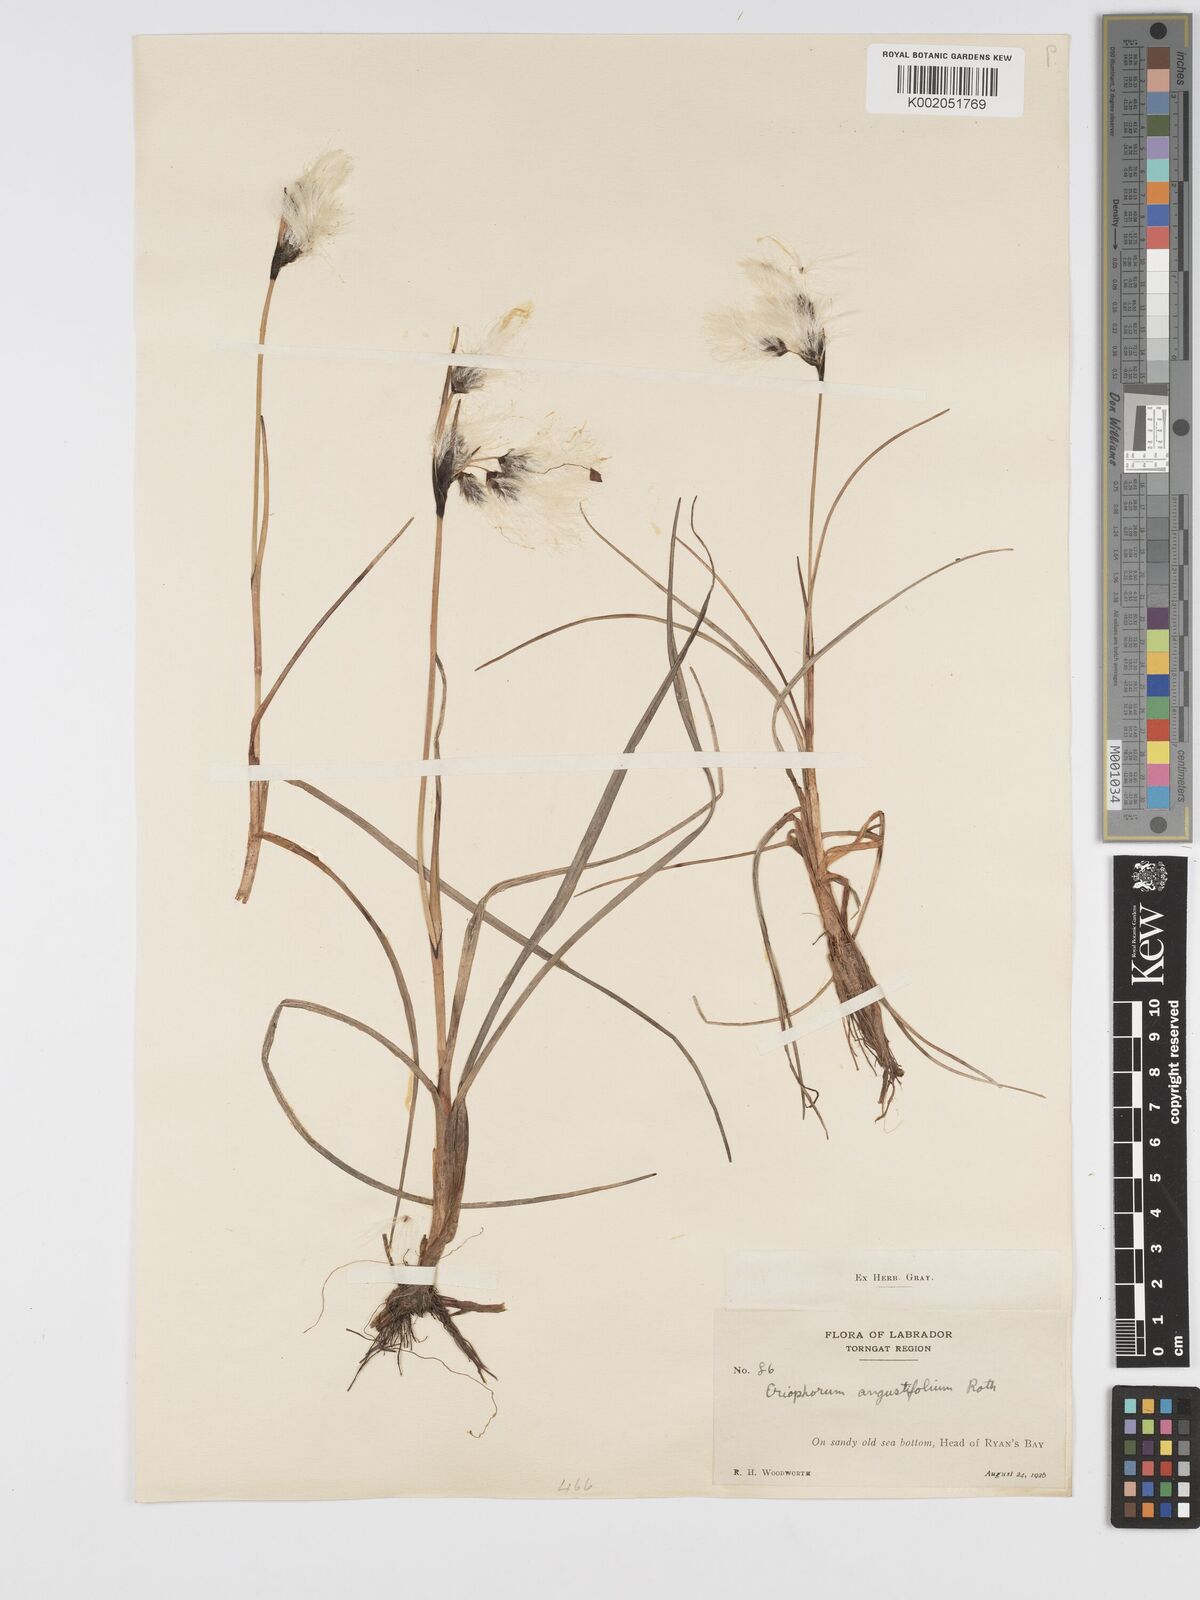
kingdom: Plantae
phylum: Tracheophyta
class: Liliopsida
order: Poales
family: Cyperaceae
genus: Eriophorum
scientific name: Eriophorum angustifolium
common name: Common cottongrass
